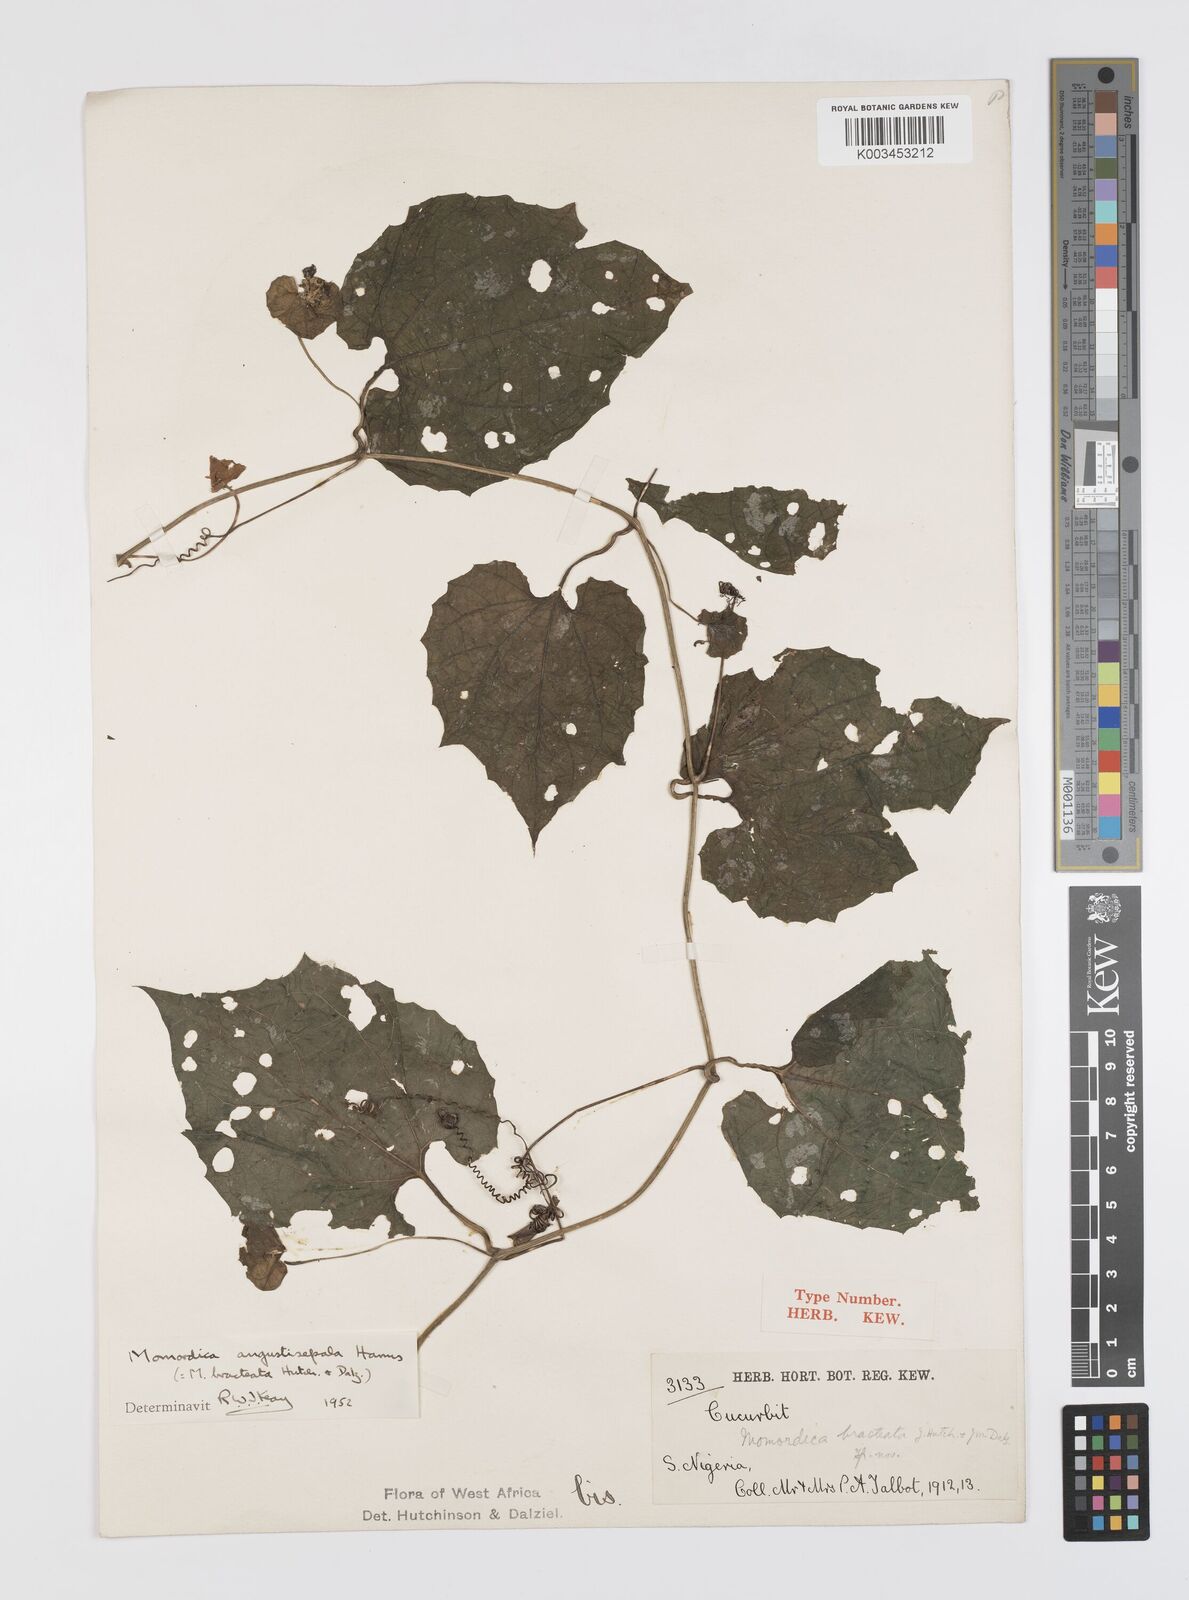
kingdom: Plantae
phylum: Tracheophyta
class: Magnoliopsida
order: Cucurbitales
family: Cucurbitaceae
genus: Momordica
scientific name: Momordica angustisepala
